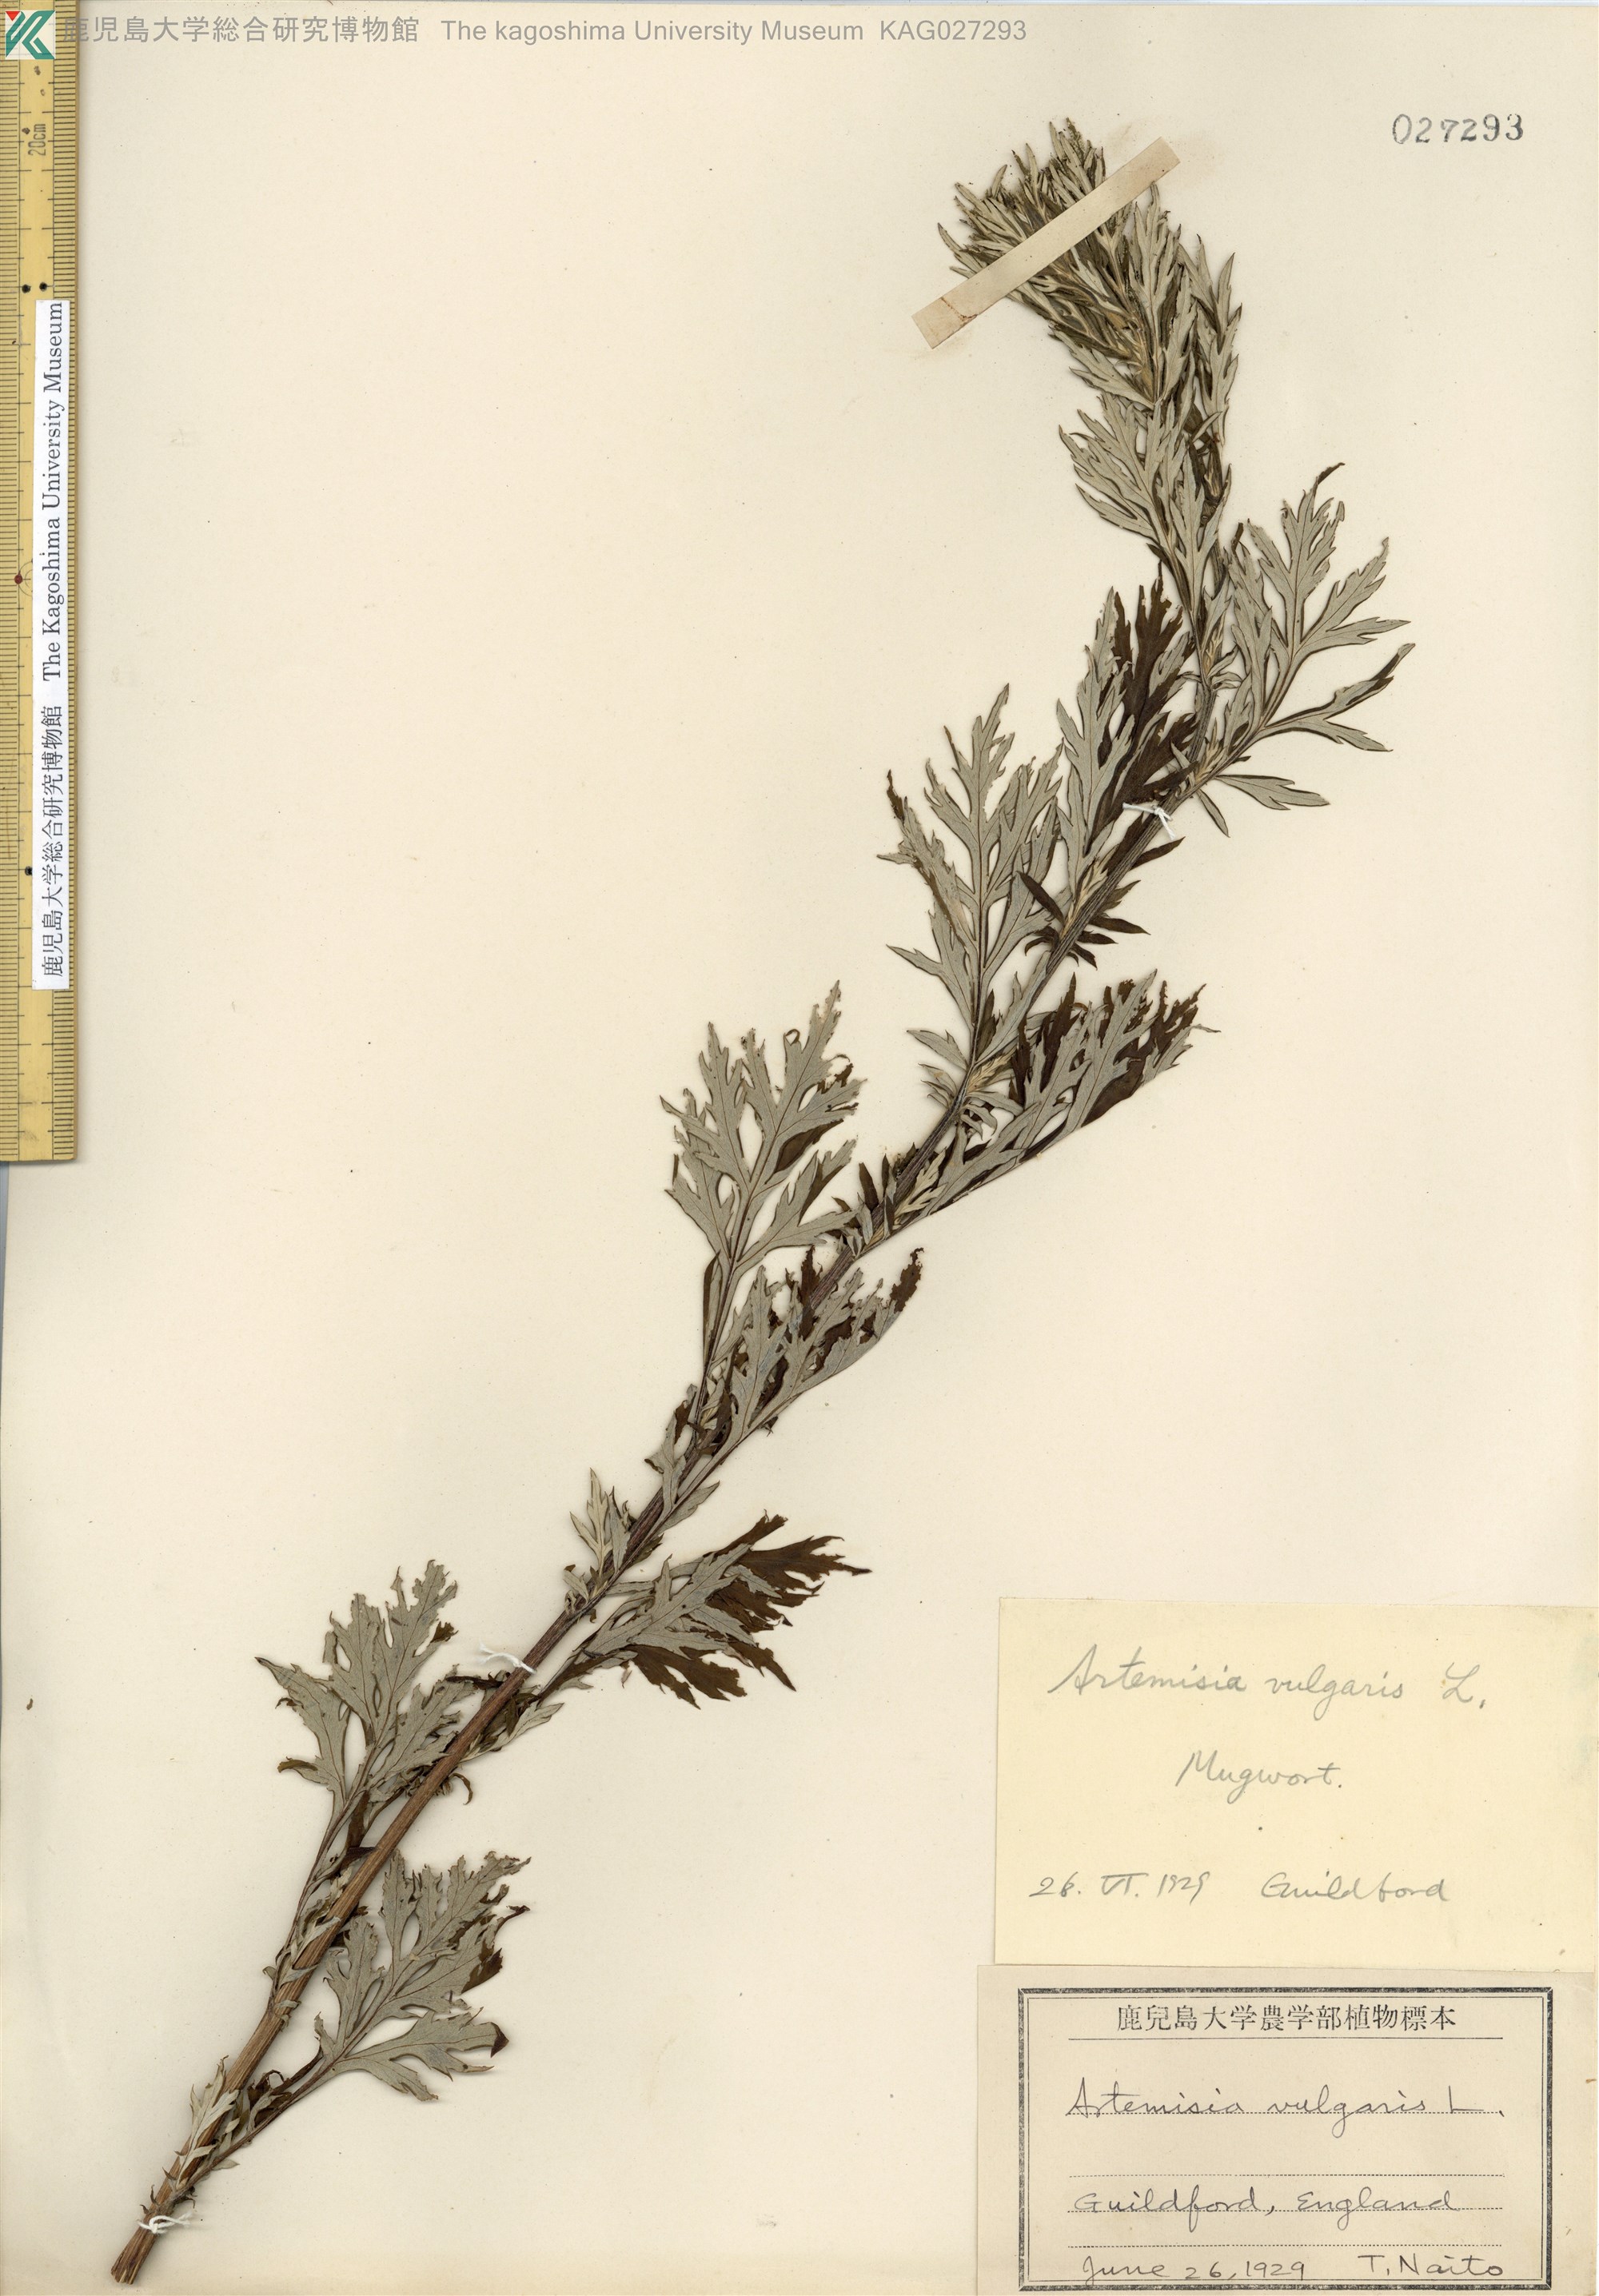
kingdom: Plantae
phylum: Tracheophyta
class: Magnoliopsida
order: Asterales
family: Asteraceae
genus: Artemisia
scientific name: Artemisia vulgaris
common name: Mugwort
